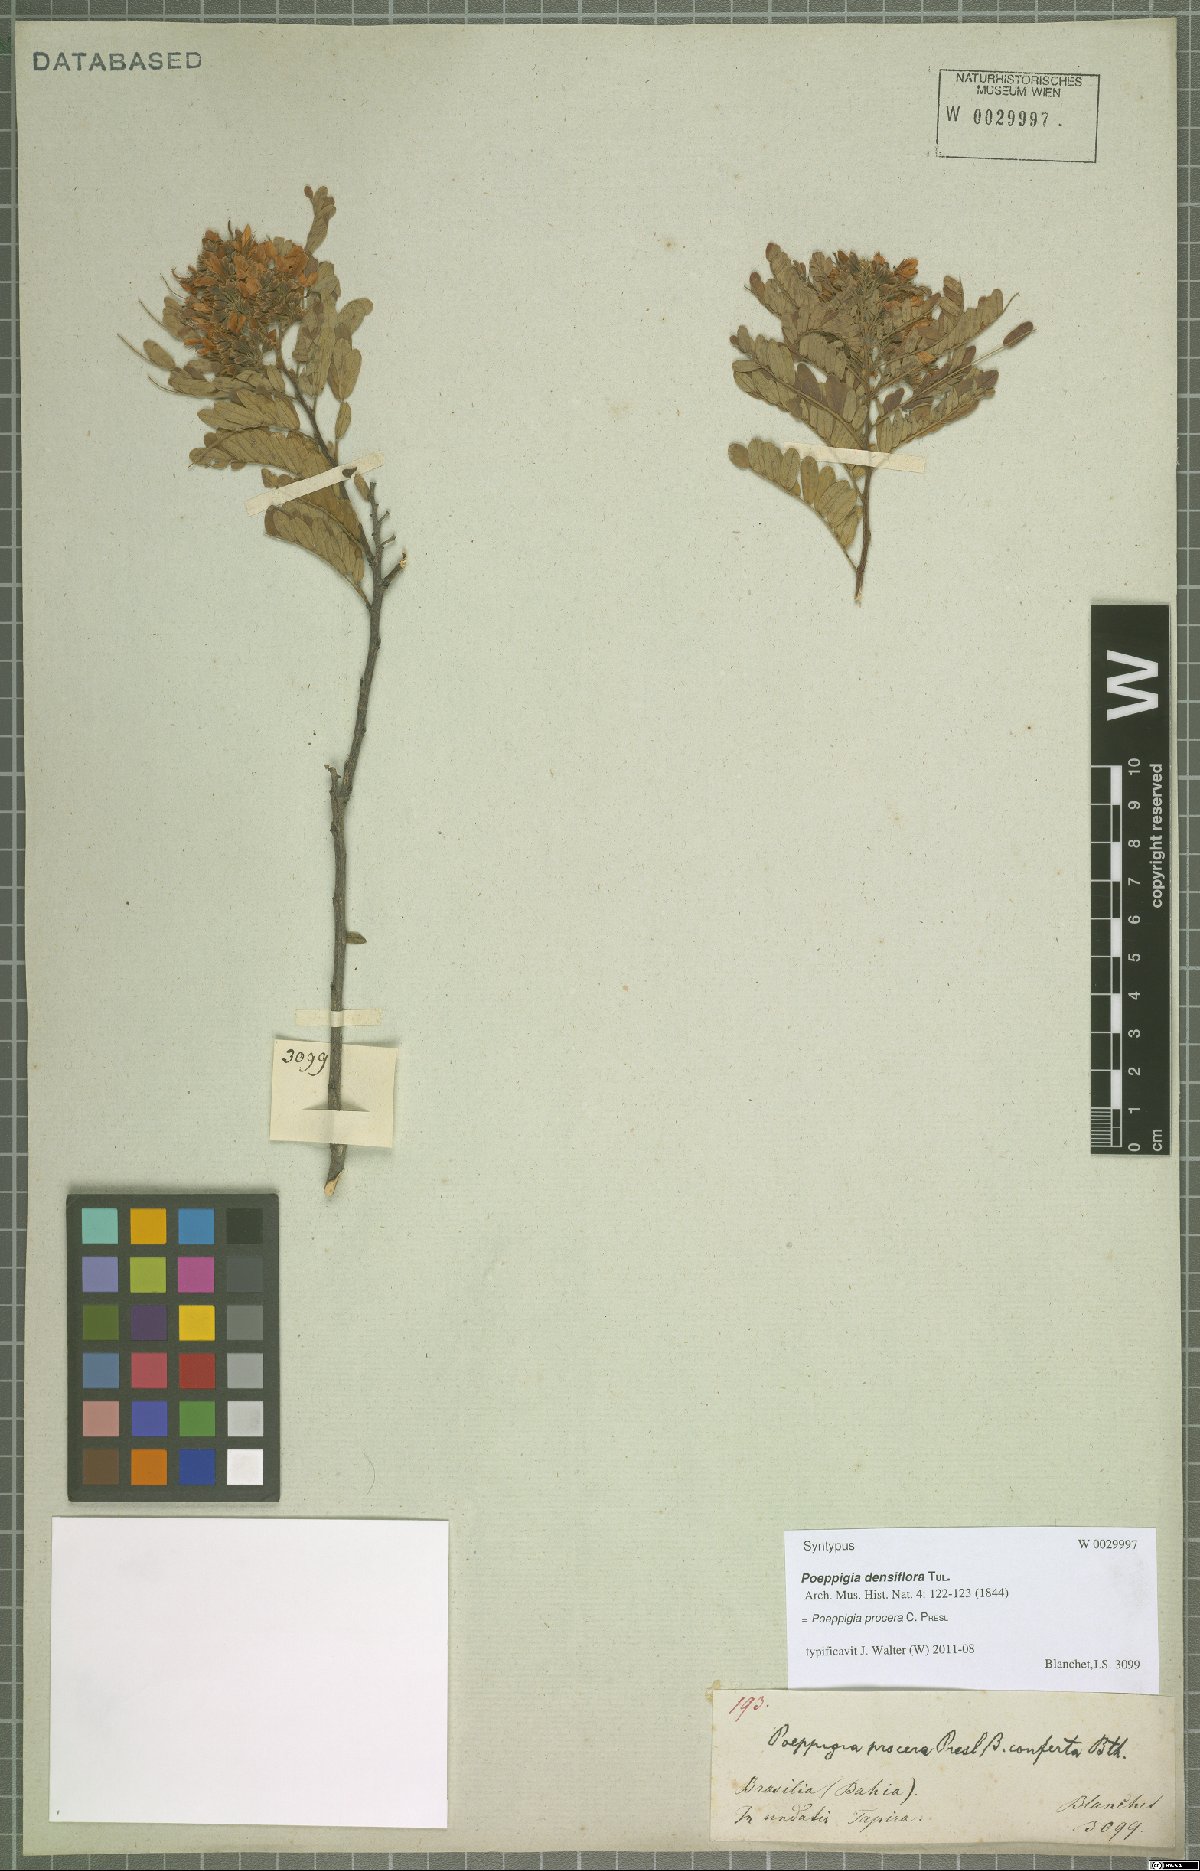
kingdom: Plantae
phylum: Tracheophyta
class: Magnoliopsida
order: Fabales
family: Fabaceae
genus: Poeppigia
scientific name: Poeppigia procera
